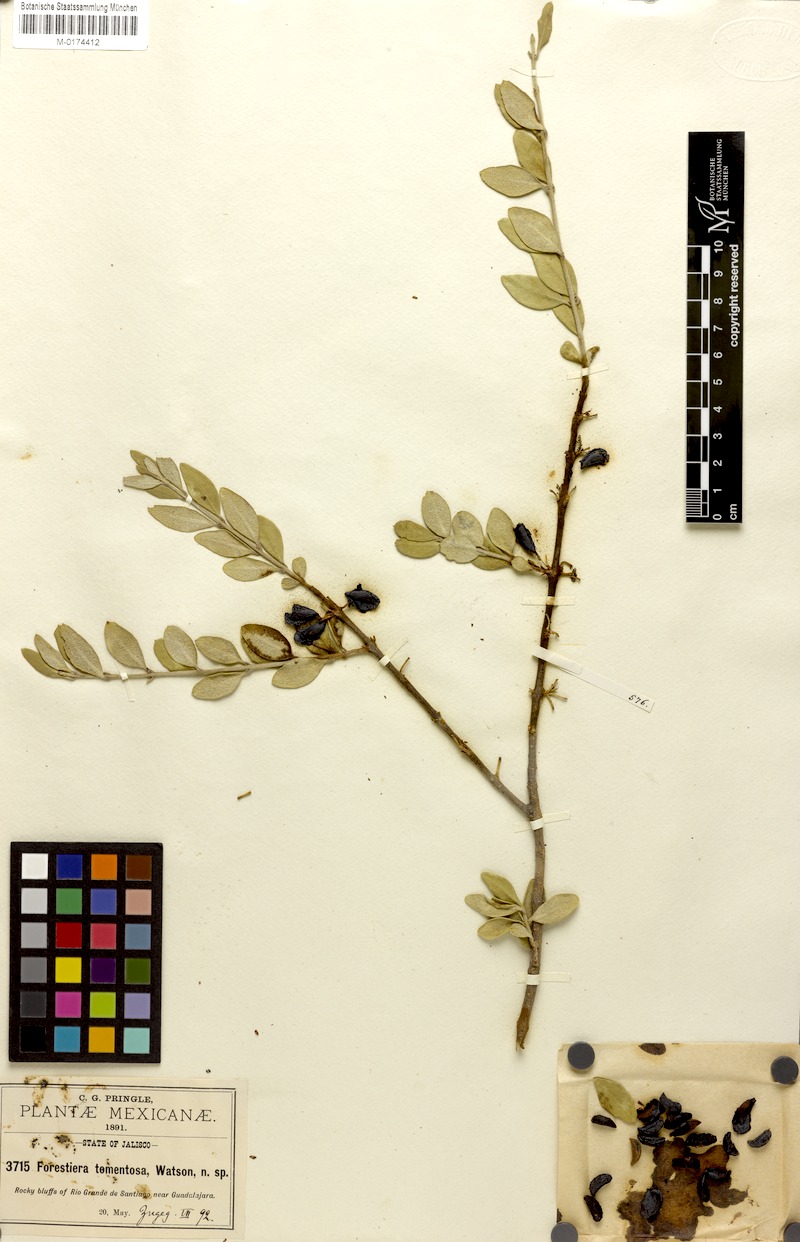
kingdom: Plantae
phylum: Tracheophyta
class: Magnoliopsida
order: Lamiales
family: Oleaceae
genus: Forestiera
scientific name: Forestiera tomentosa
